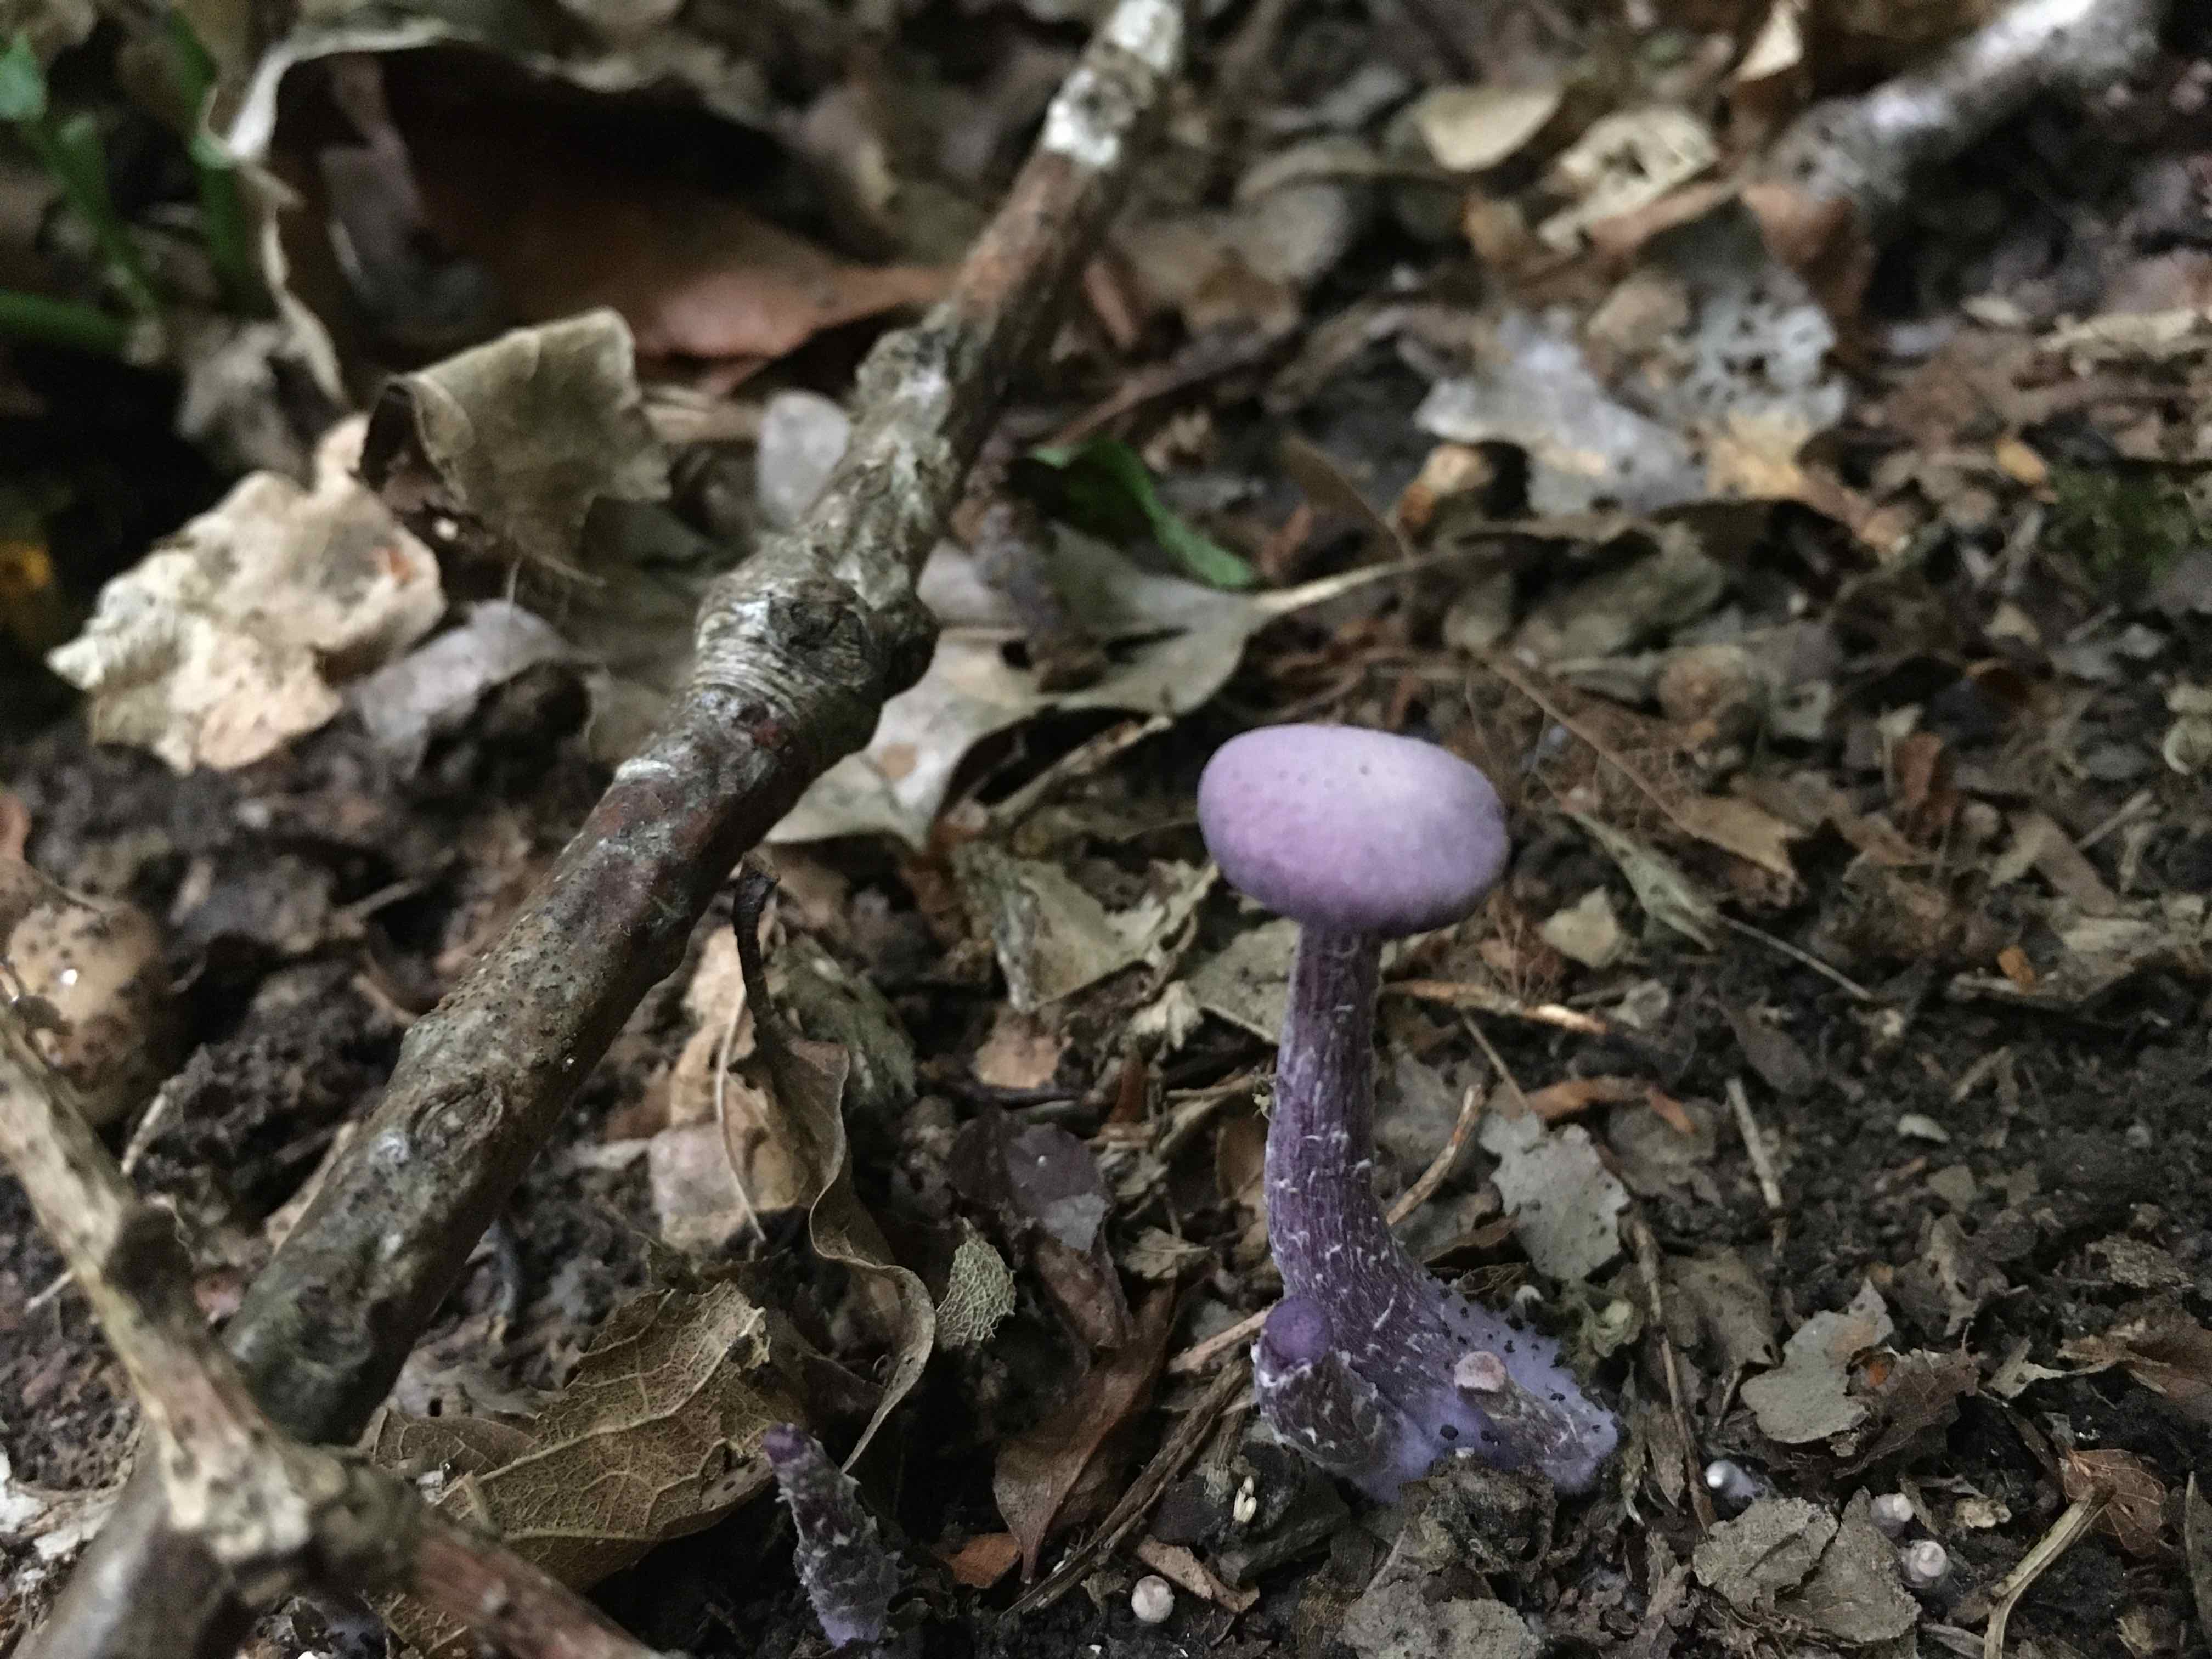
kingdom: Fungi
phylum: Basidiomycota
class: Agaricomycetes
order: Agaricales
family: Hydnangiaceae
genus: Laccaria
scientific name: Laccaria amethystina
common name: violet ametysthat
